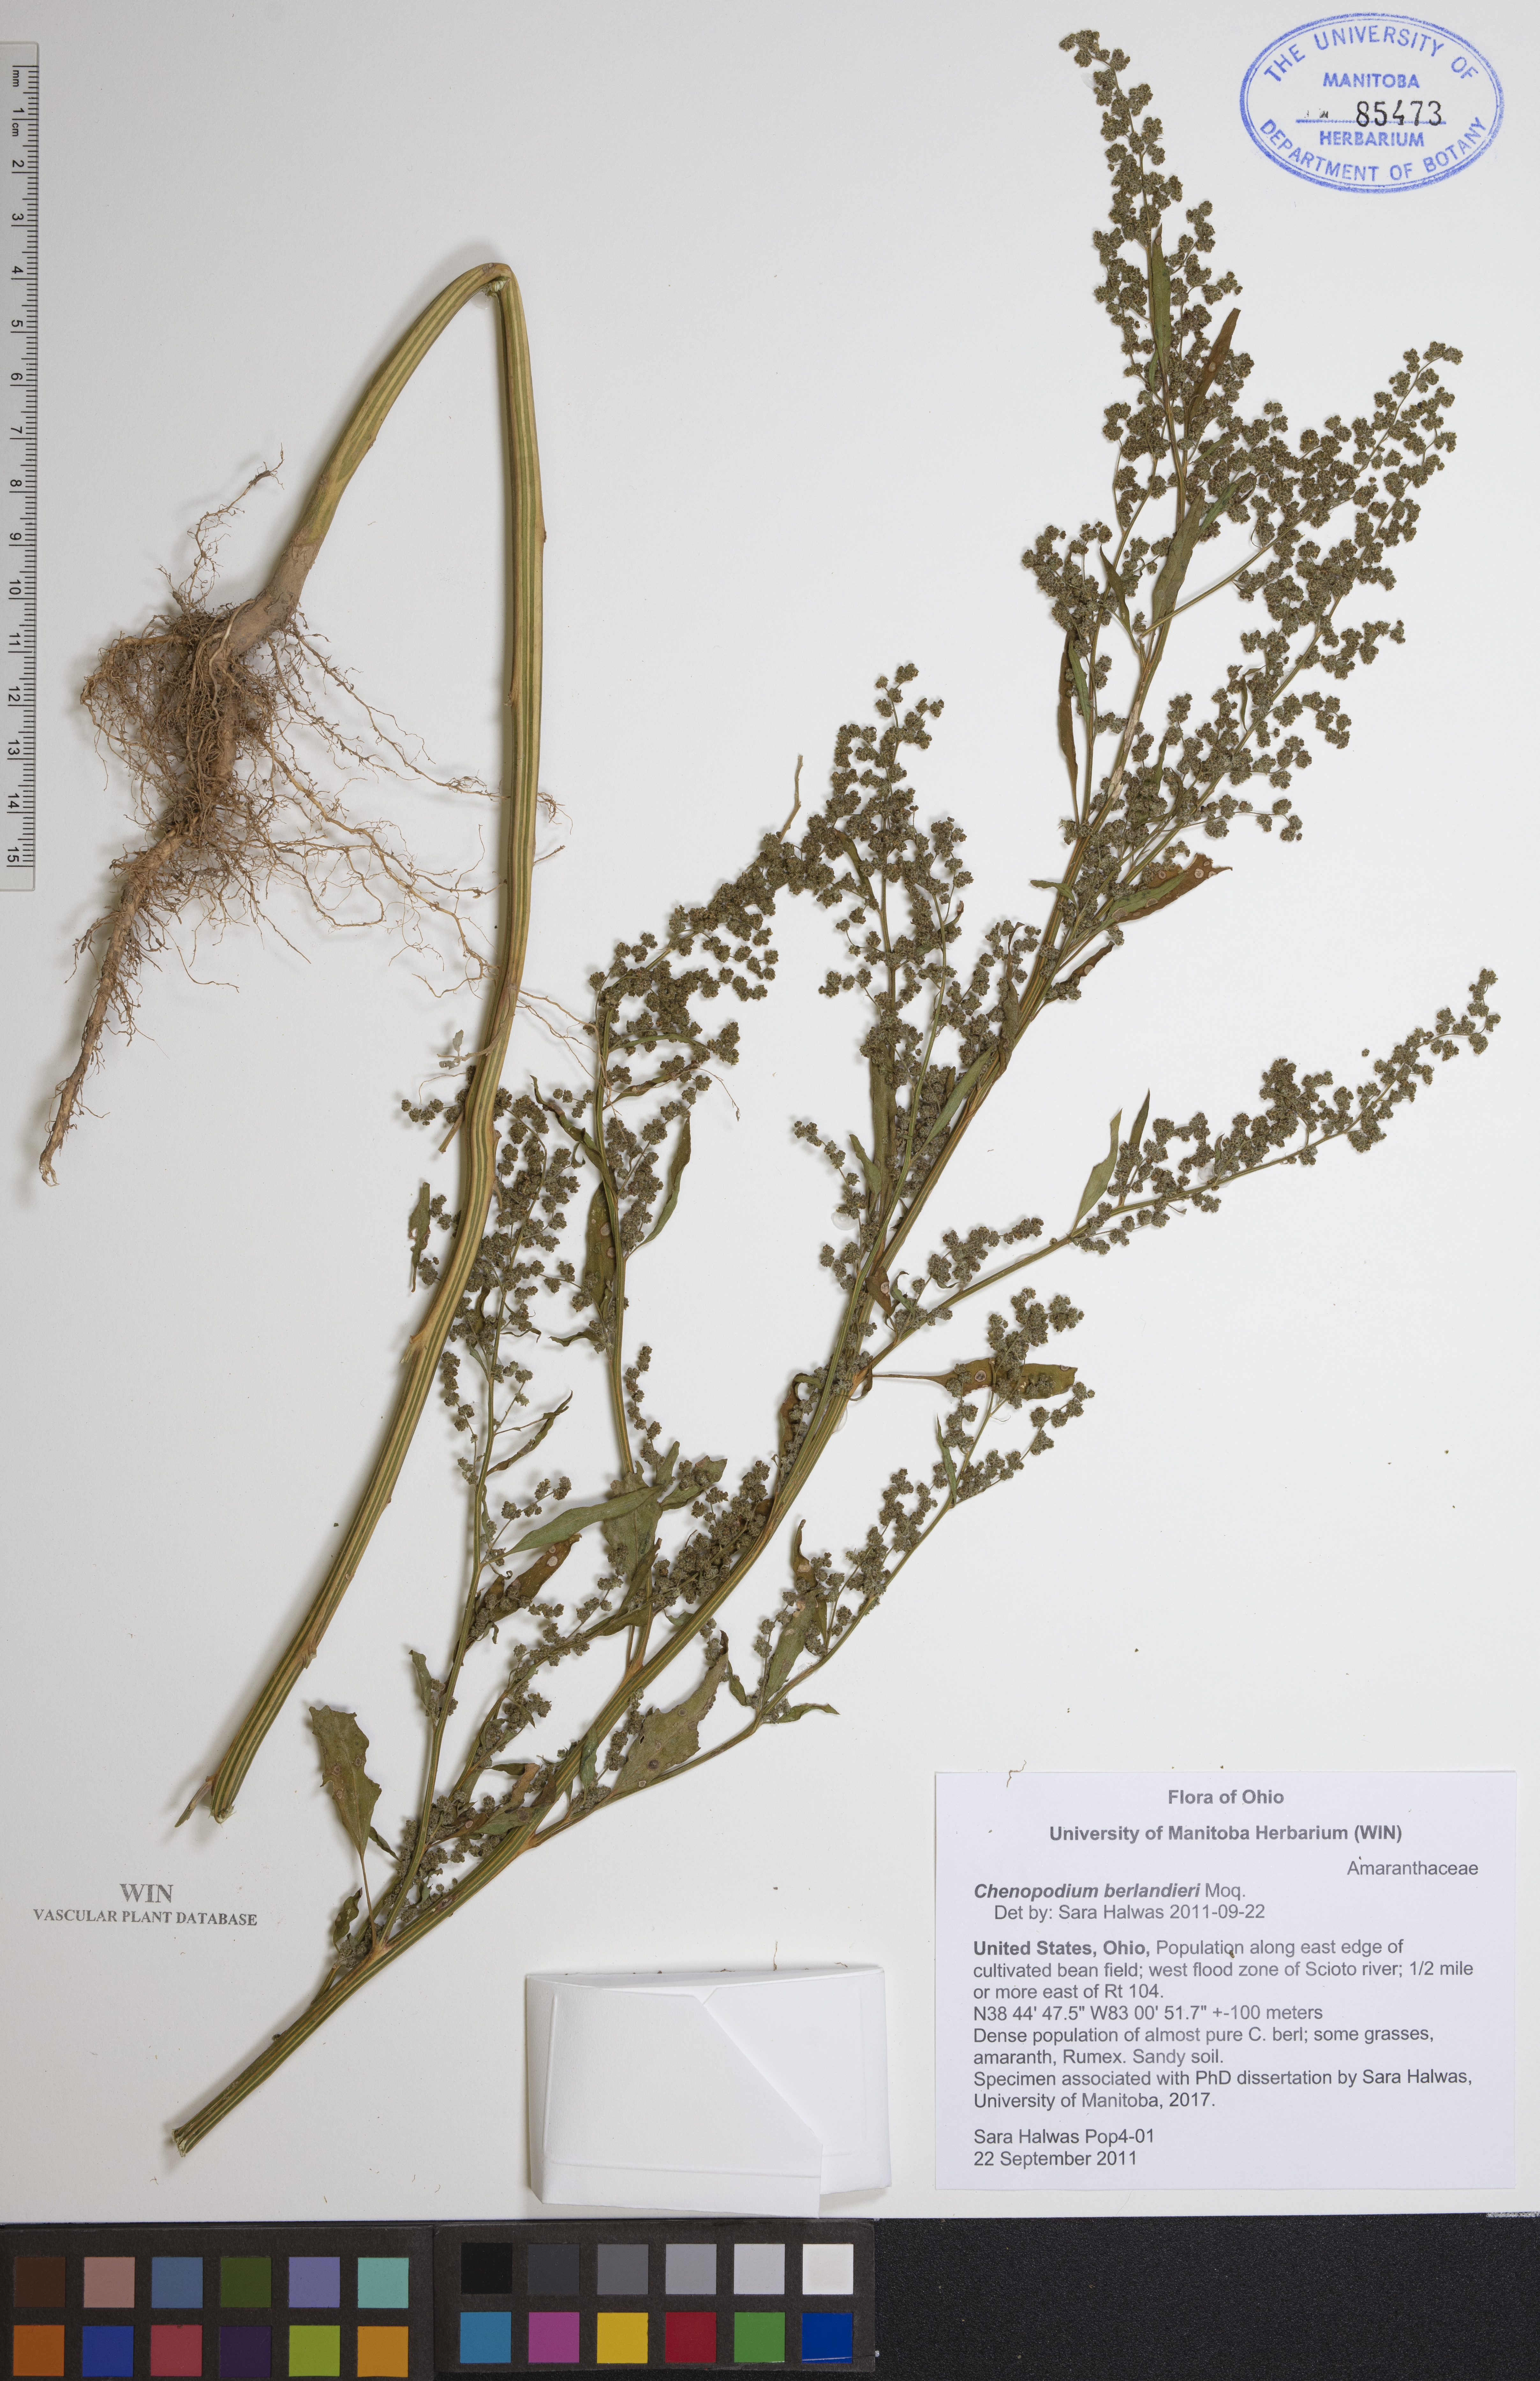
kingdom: Plantae
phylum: Tracheophyta
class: Magnoliopsida
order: Caryophyllales
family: Amaranthaceae
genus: Chenopodium
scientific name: Chenopodium berlandieri
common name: Pit-seed goosefoot
